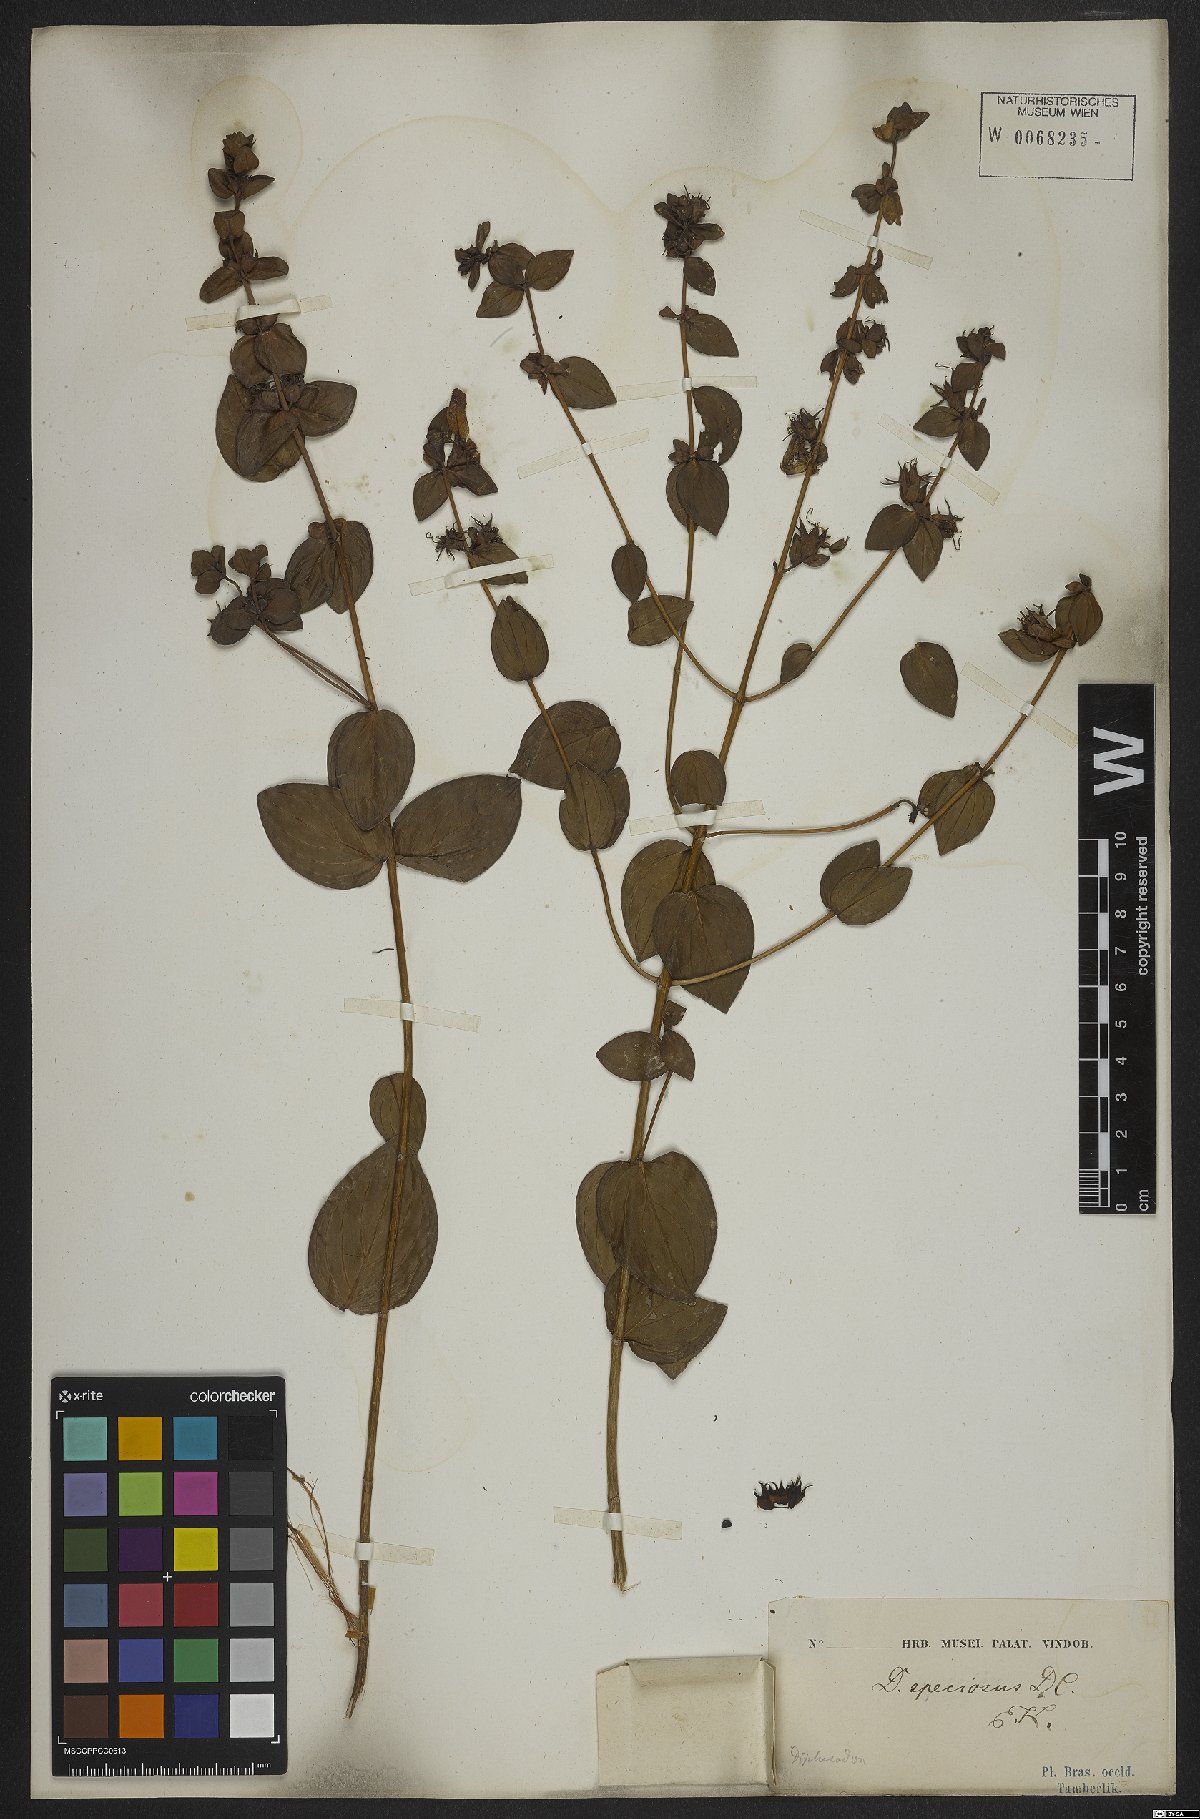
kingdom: Plantae
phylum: Tracheophyta
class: Magnoliopsida
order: Myrtales
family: Lythraceae
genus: Cuphea
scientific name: Cuphea llavea
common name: Tiny-mice
